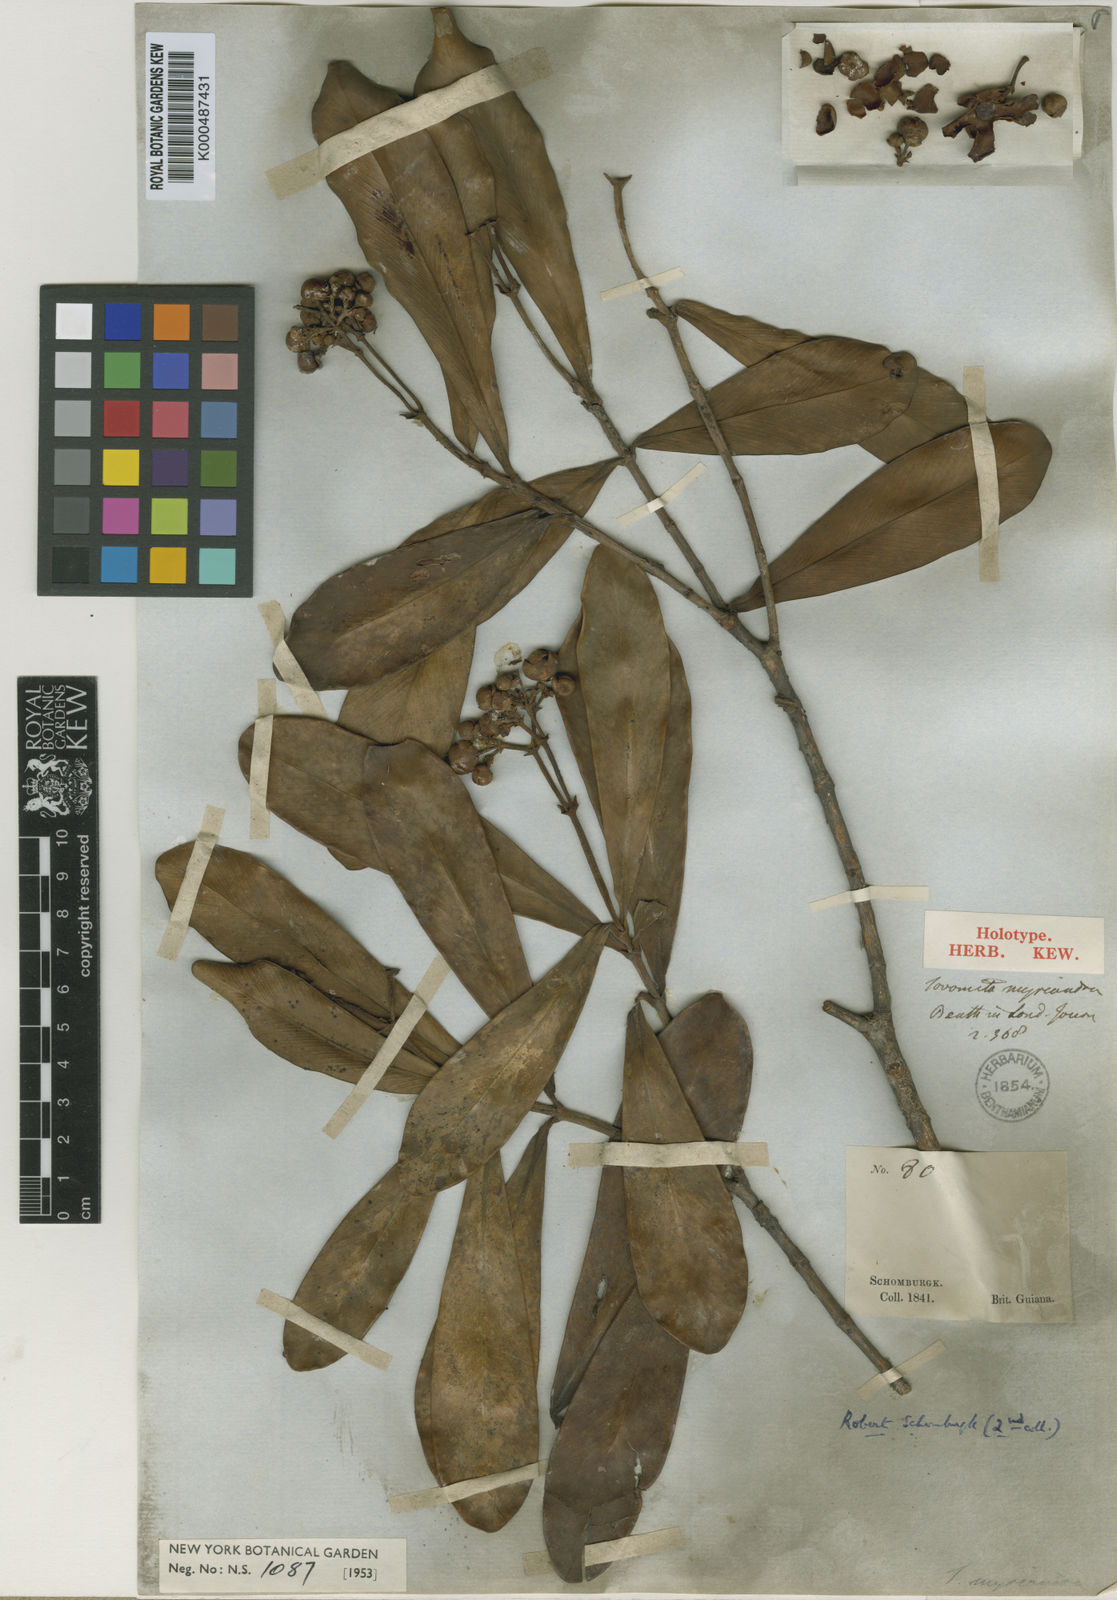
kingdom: Plantae
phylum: Tracheophyta
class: Magnoliopsida
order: Malpighiales
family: Clusiaceae
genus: Clusia
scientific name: Clusia myriandra
